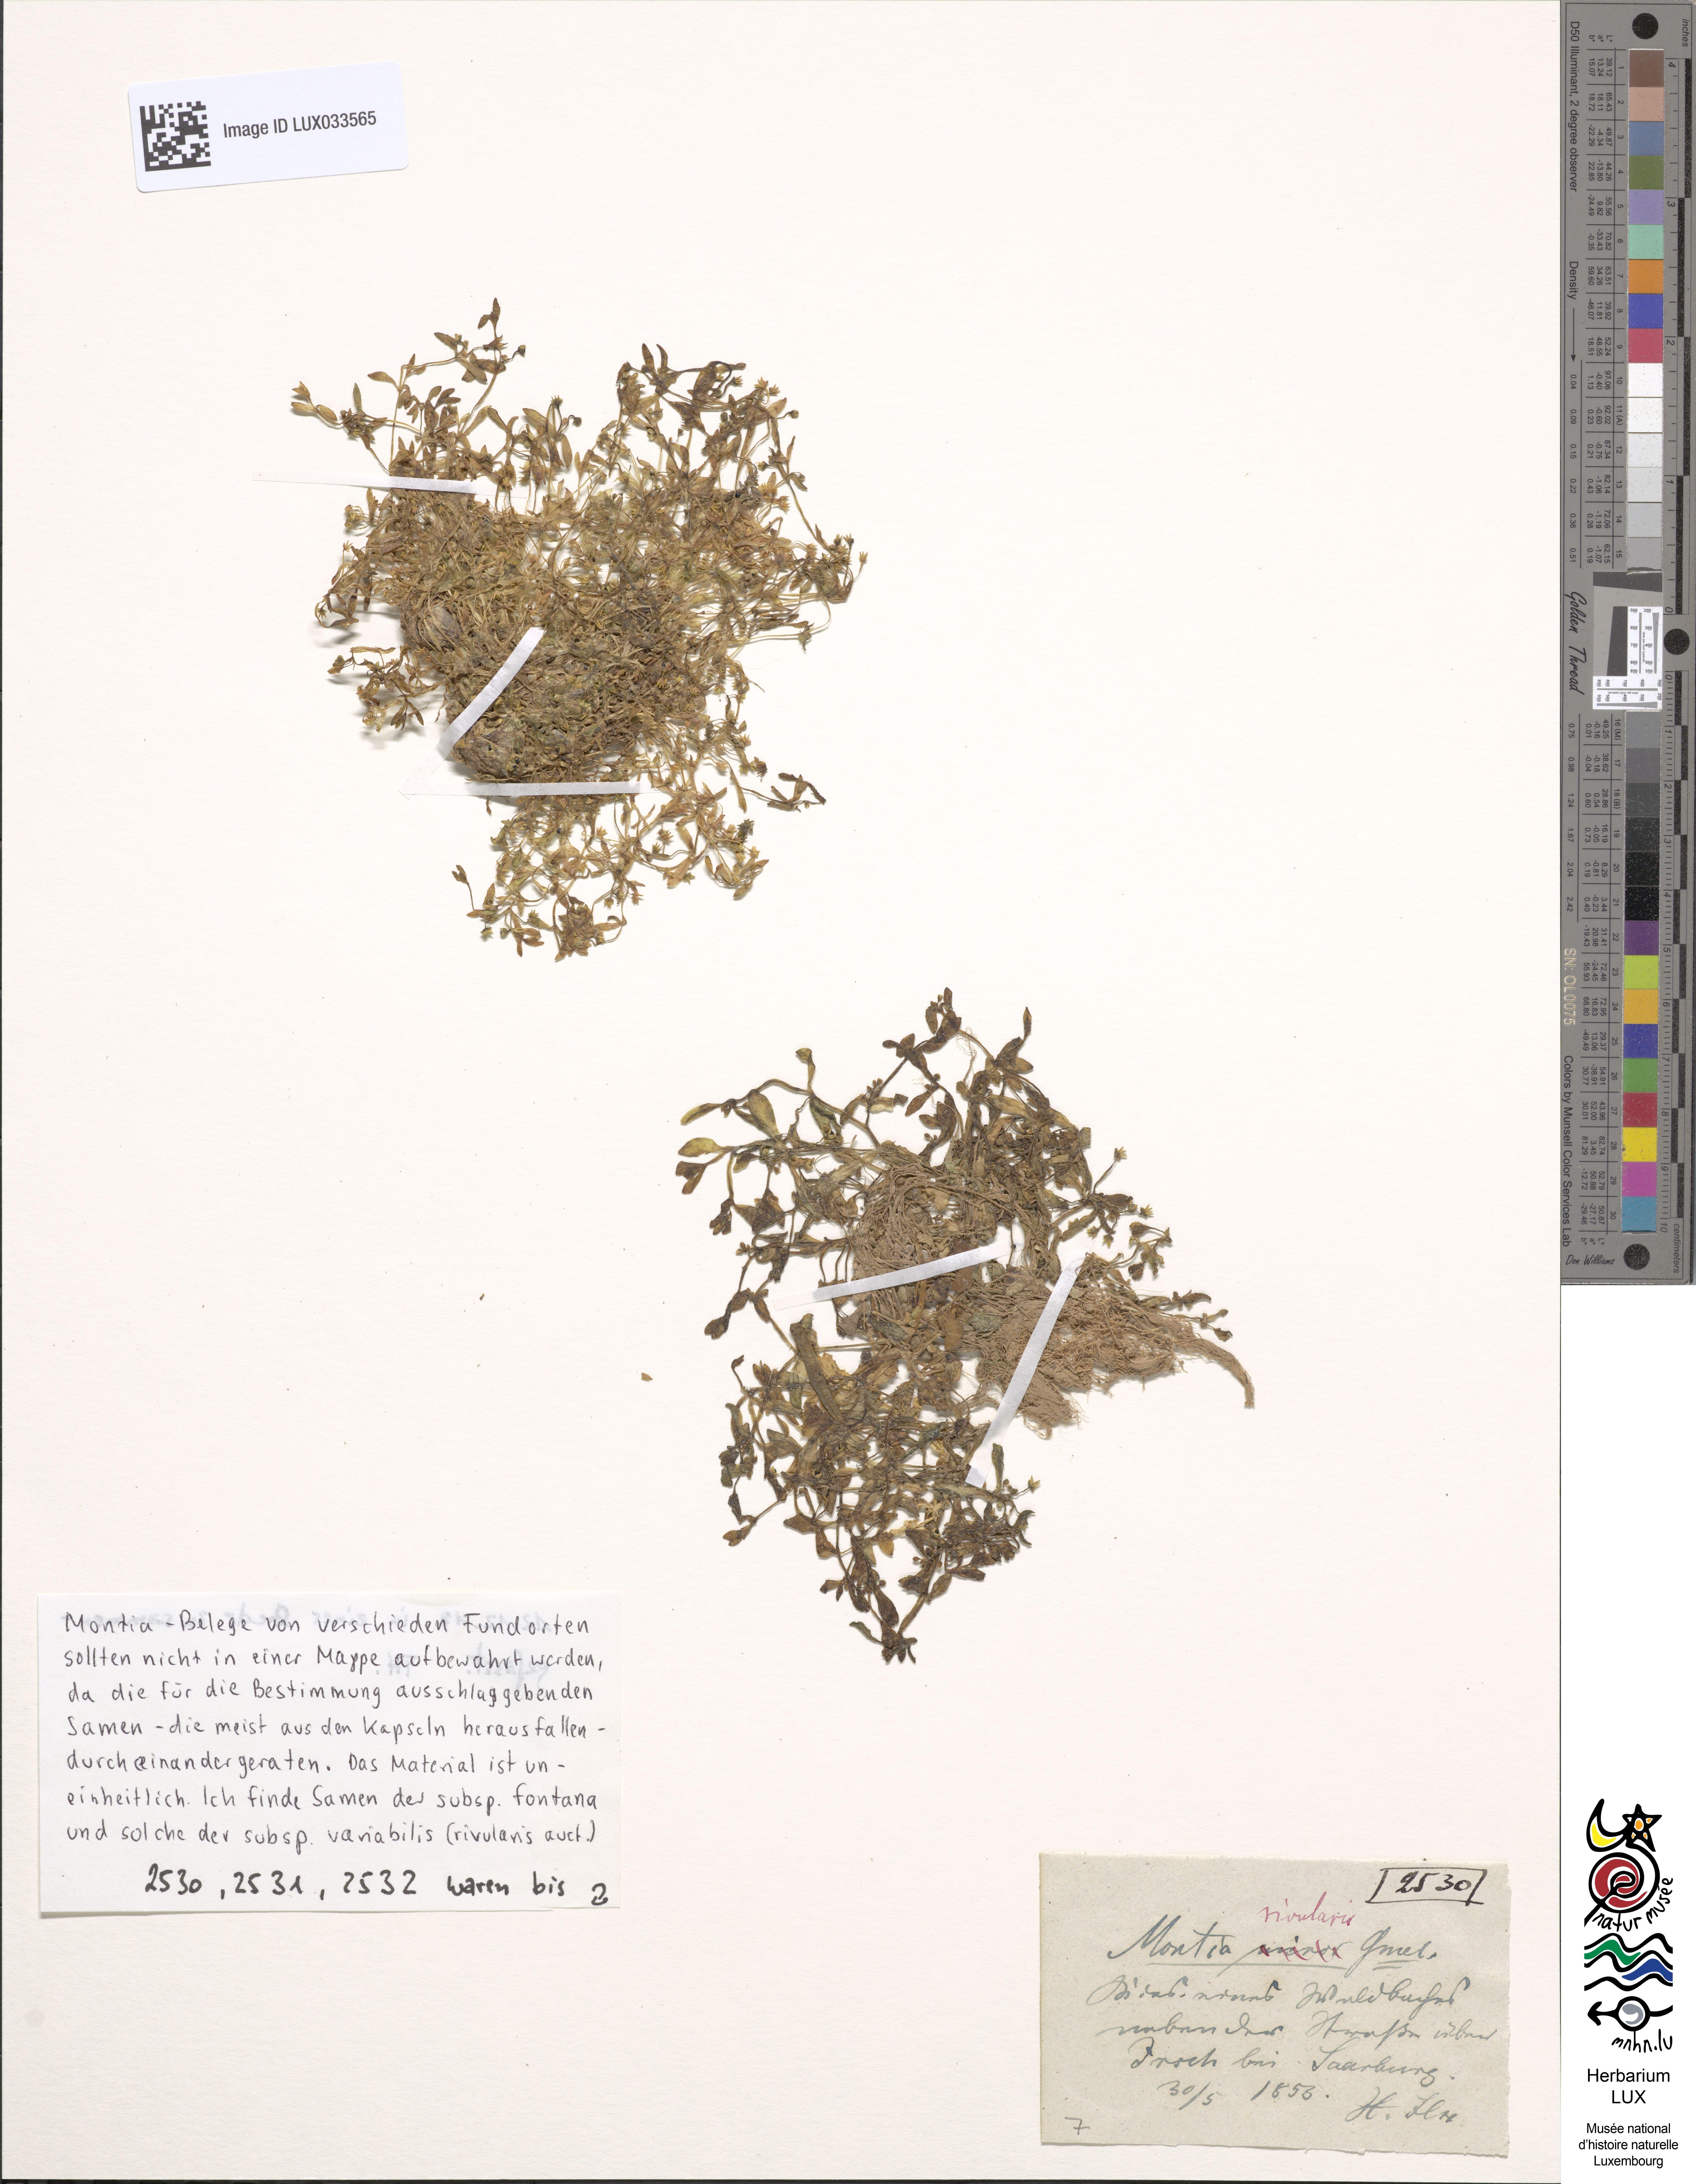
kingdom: Plantae
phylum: Tracheophyta
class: Magnoliopsida
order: Caryophyllales
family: Montiaceae
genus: Montia
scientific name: Montia fontana
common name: Blinks
